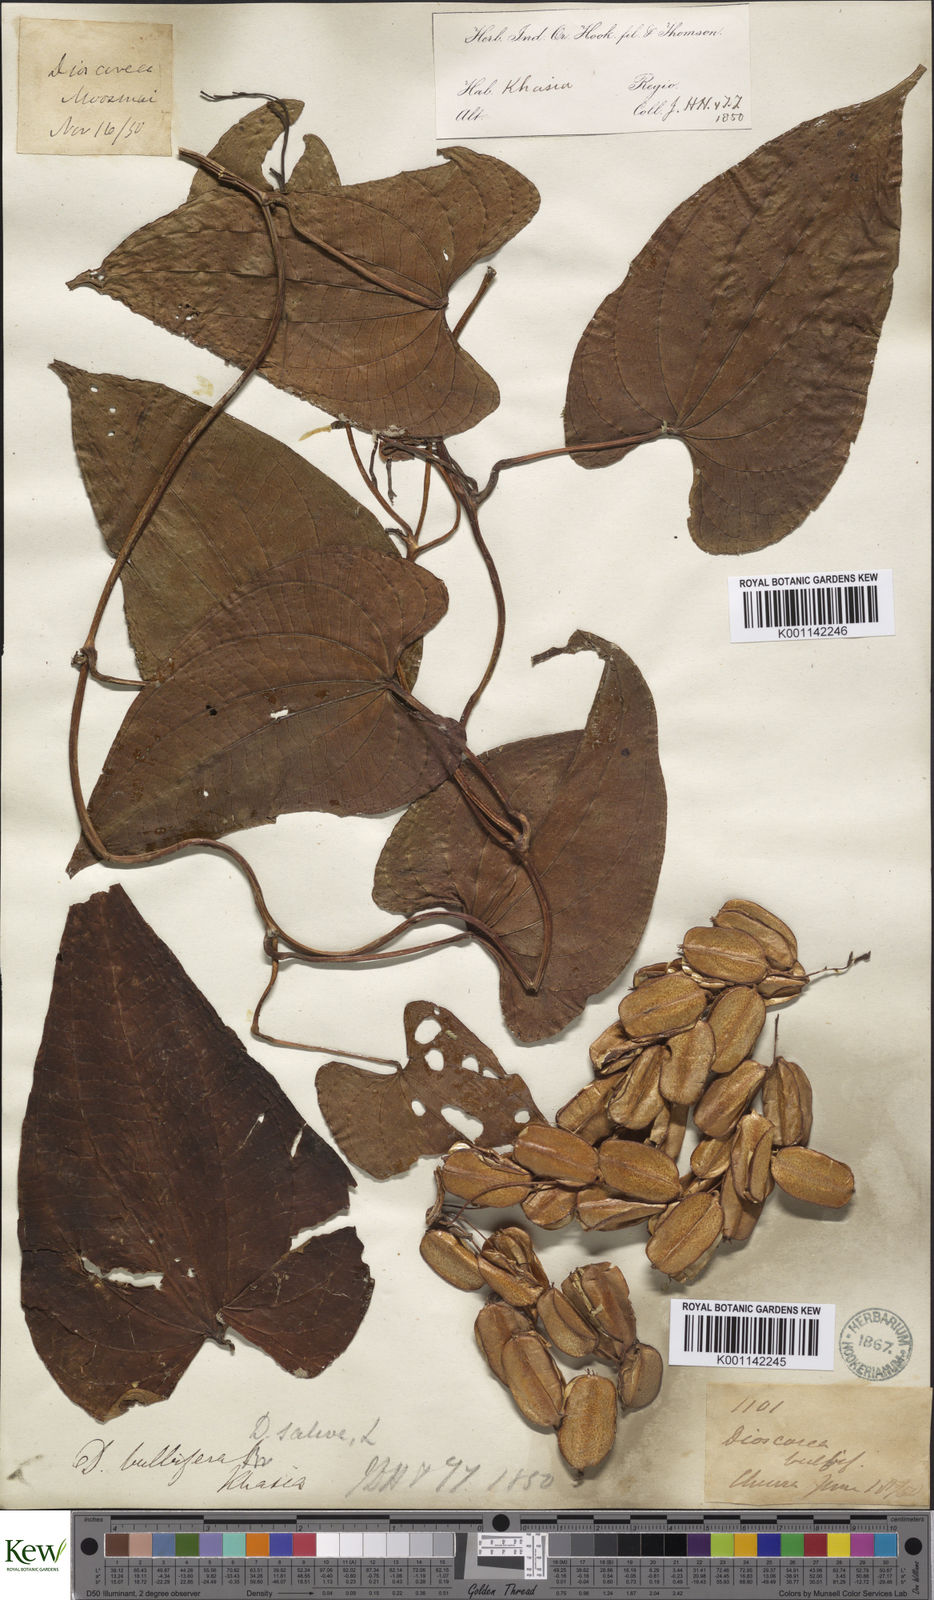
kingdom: Plantae
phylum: Tracheophyta
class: Liliopsida
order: Dioscoreales
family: Dioscoreaceae
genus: Dioscorea
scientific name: Dioscorea bulbifera
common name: Air yam
